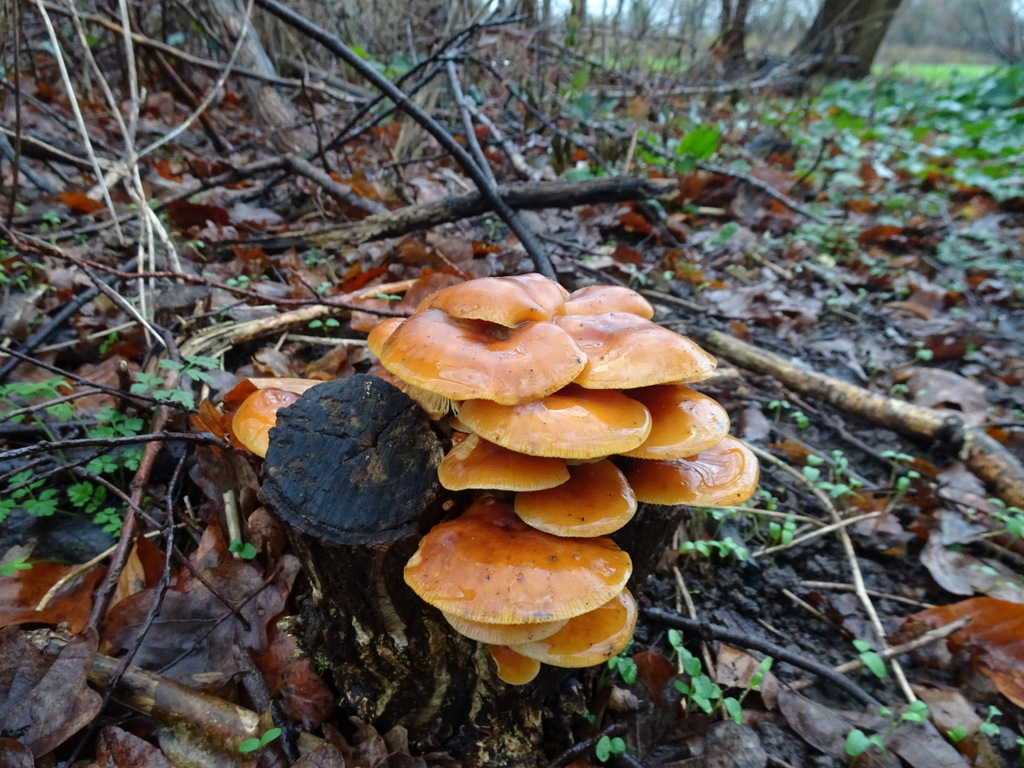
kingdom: Fungi
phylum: Basidiomycota
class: Agaricomycetes
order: Agaricales
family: Physalacriaceae
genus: Flammulina
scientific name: Flammulina velutipes
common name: gul fløjlsfod
